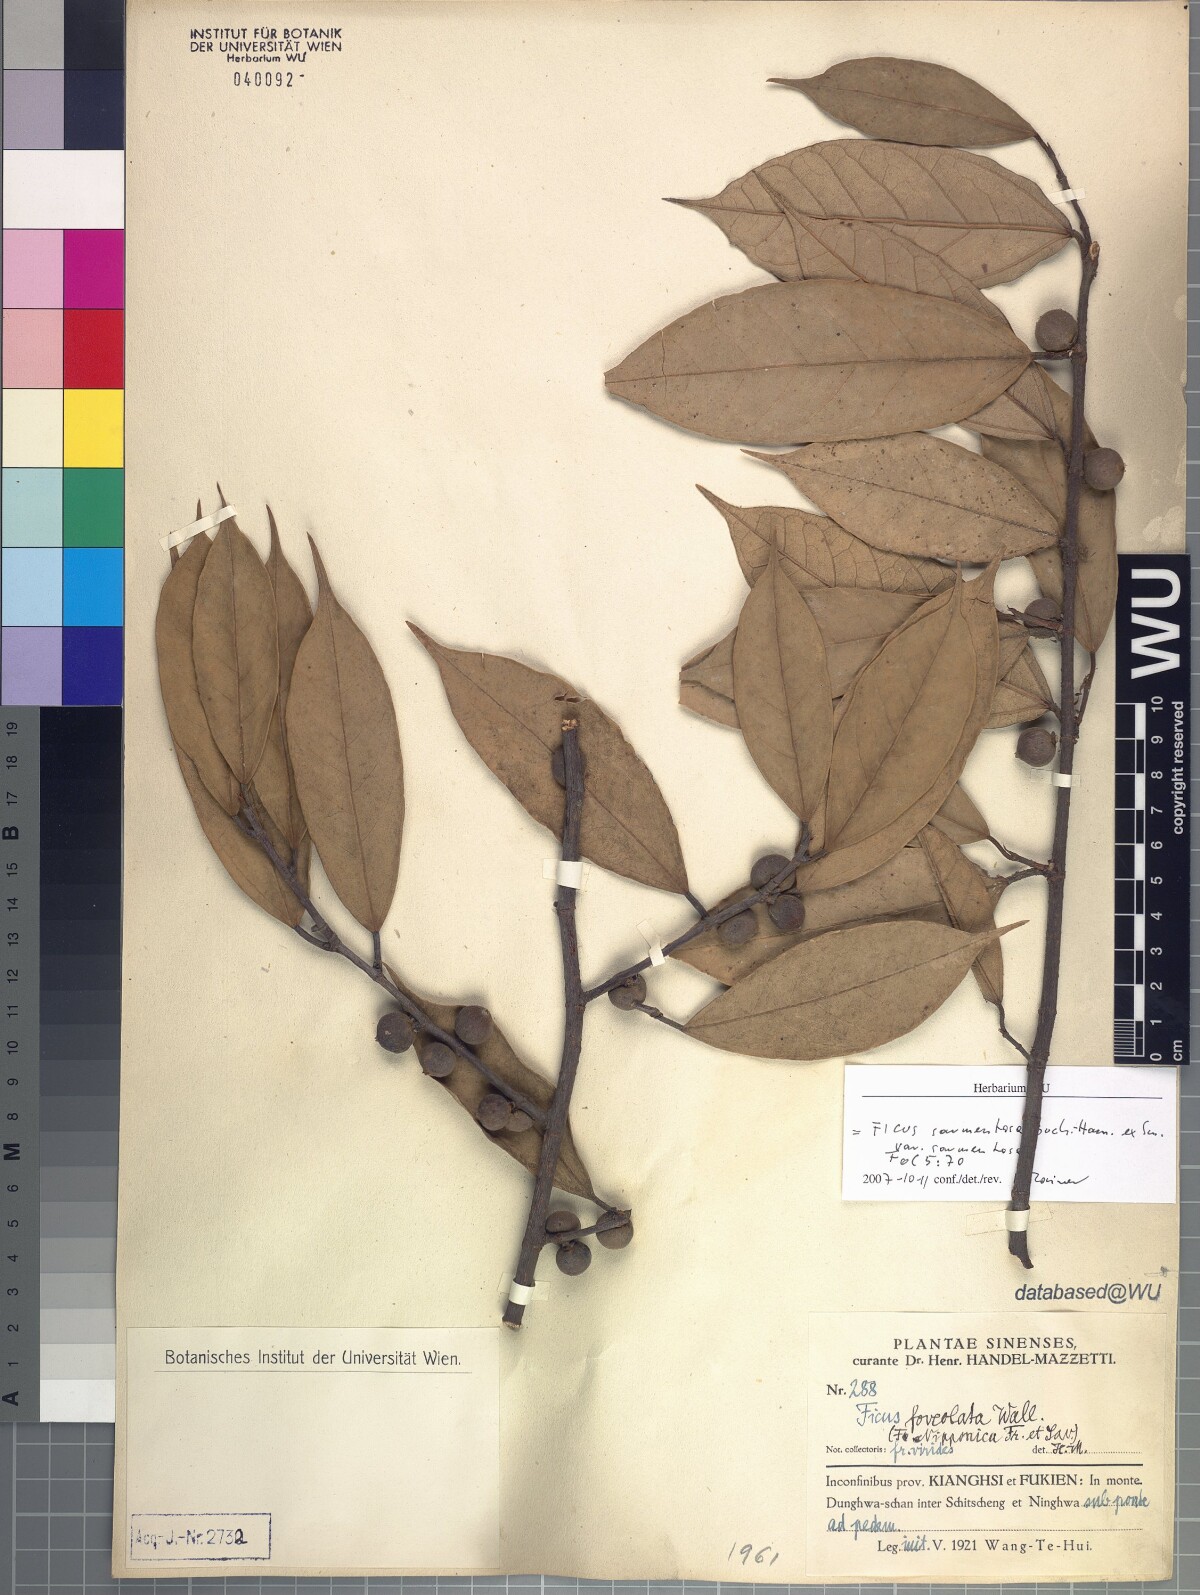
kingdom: Plantae
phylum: Tracheophyta
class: Magnoliopsida
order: Rosales
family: Moraceae
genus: Ficus
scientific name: Ficus sarmentosa
